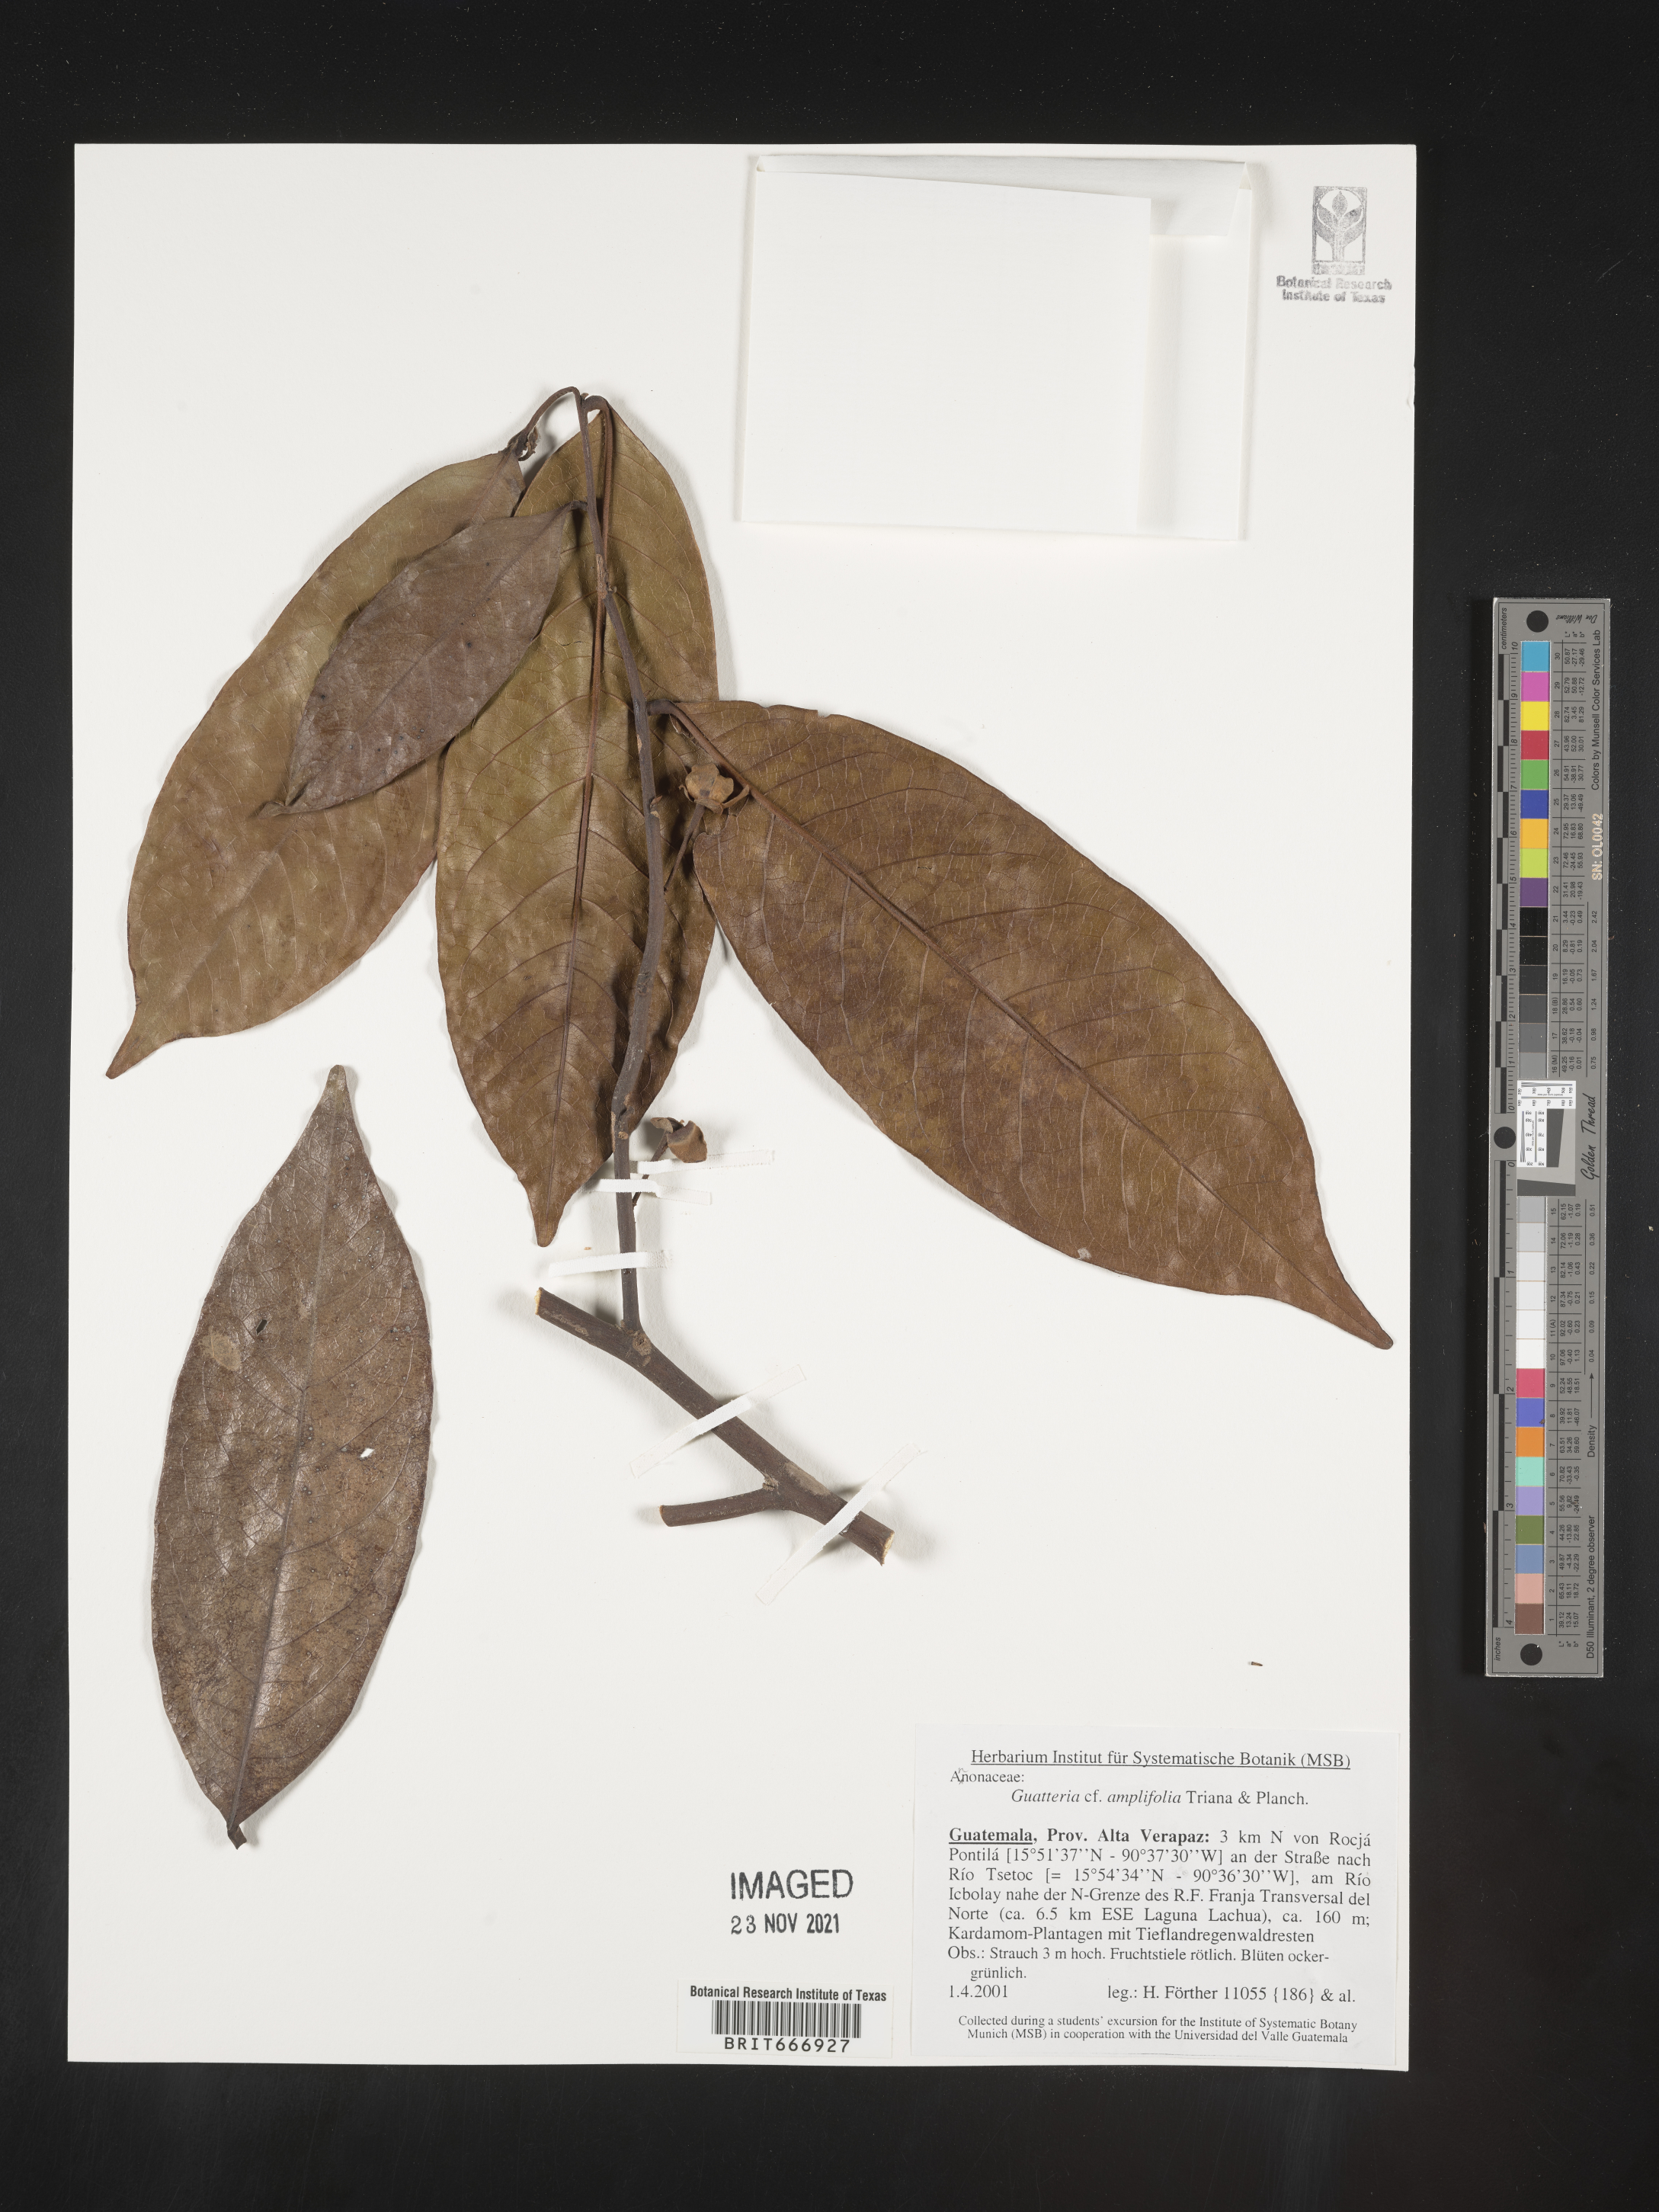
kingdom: Plantae
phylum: Tracheophyta
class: Magnoliopsida
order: Magnoliales
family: Annonaceae
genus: Guatteria
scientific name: Guatteria
